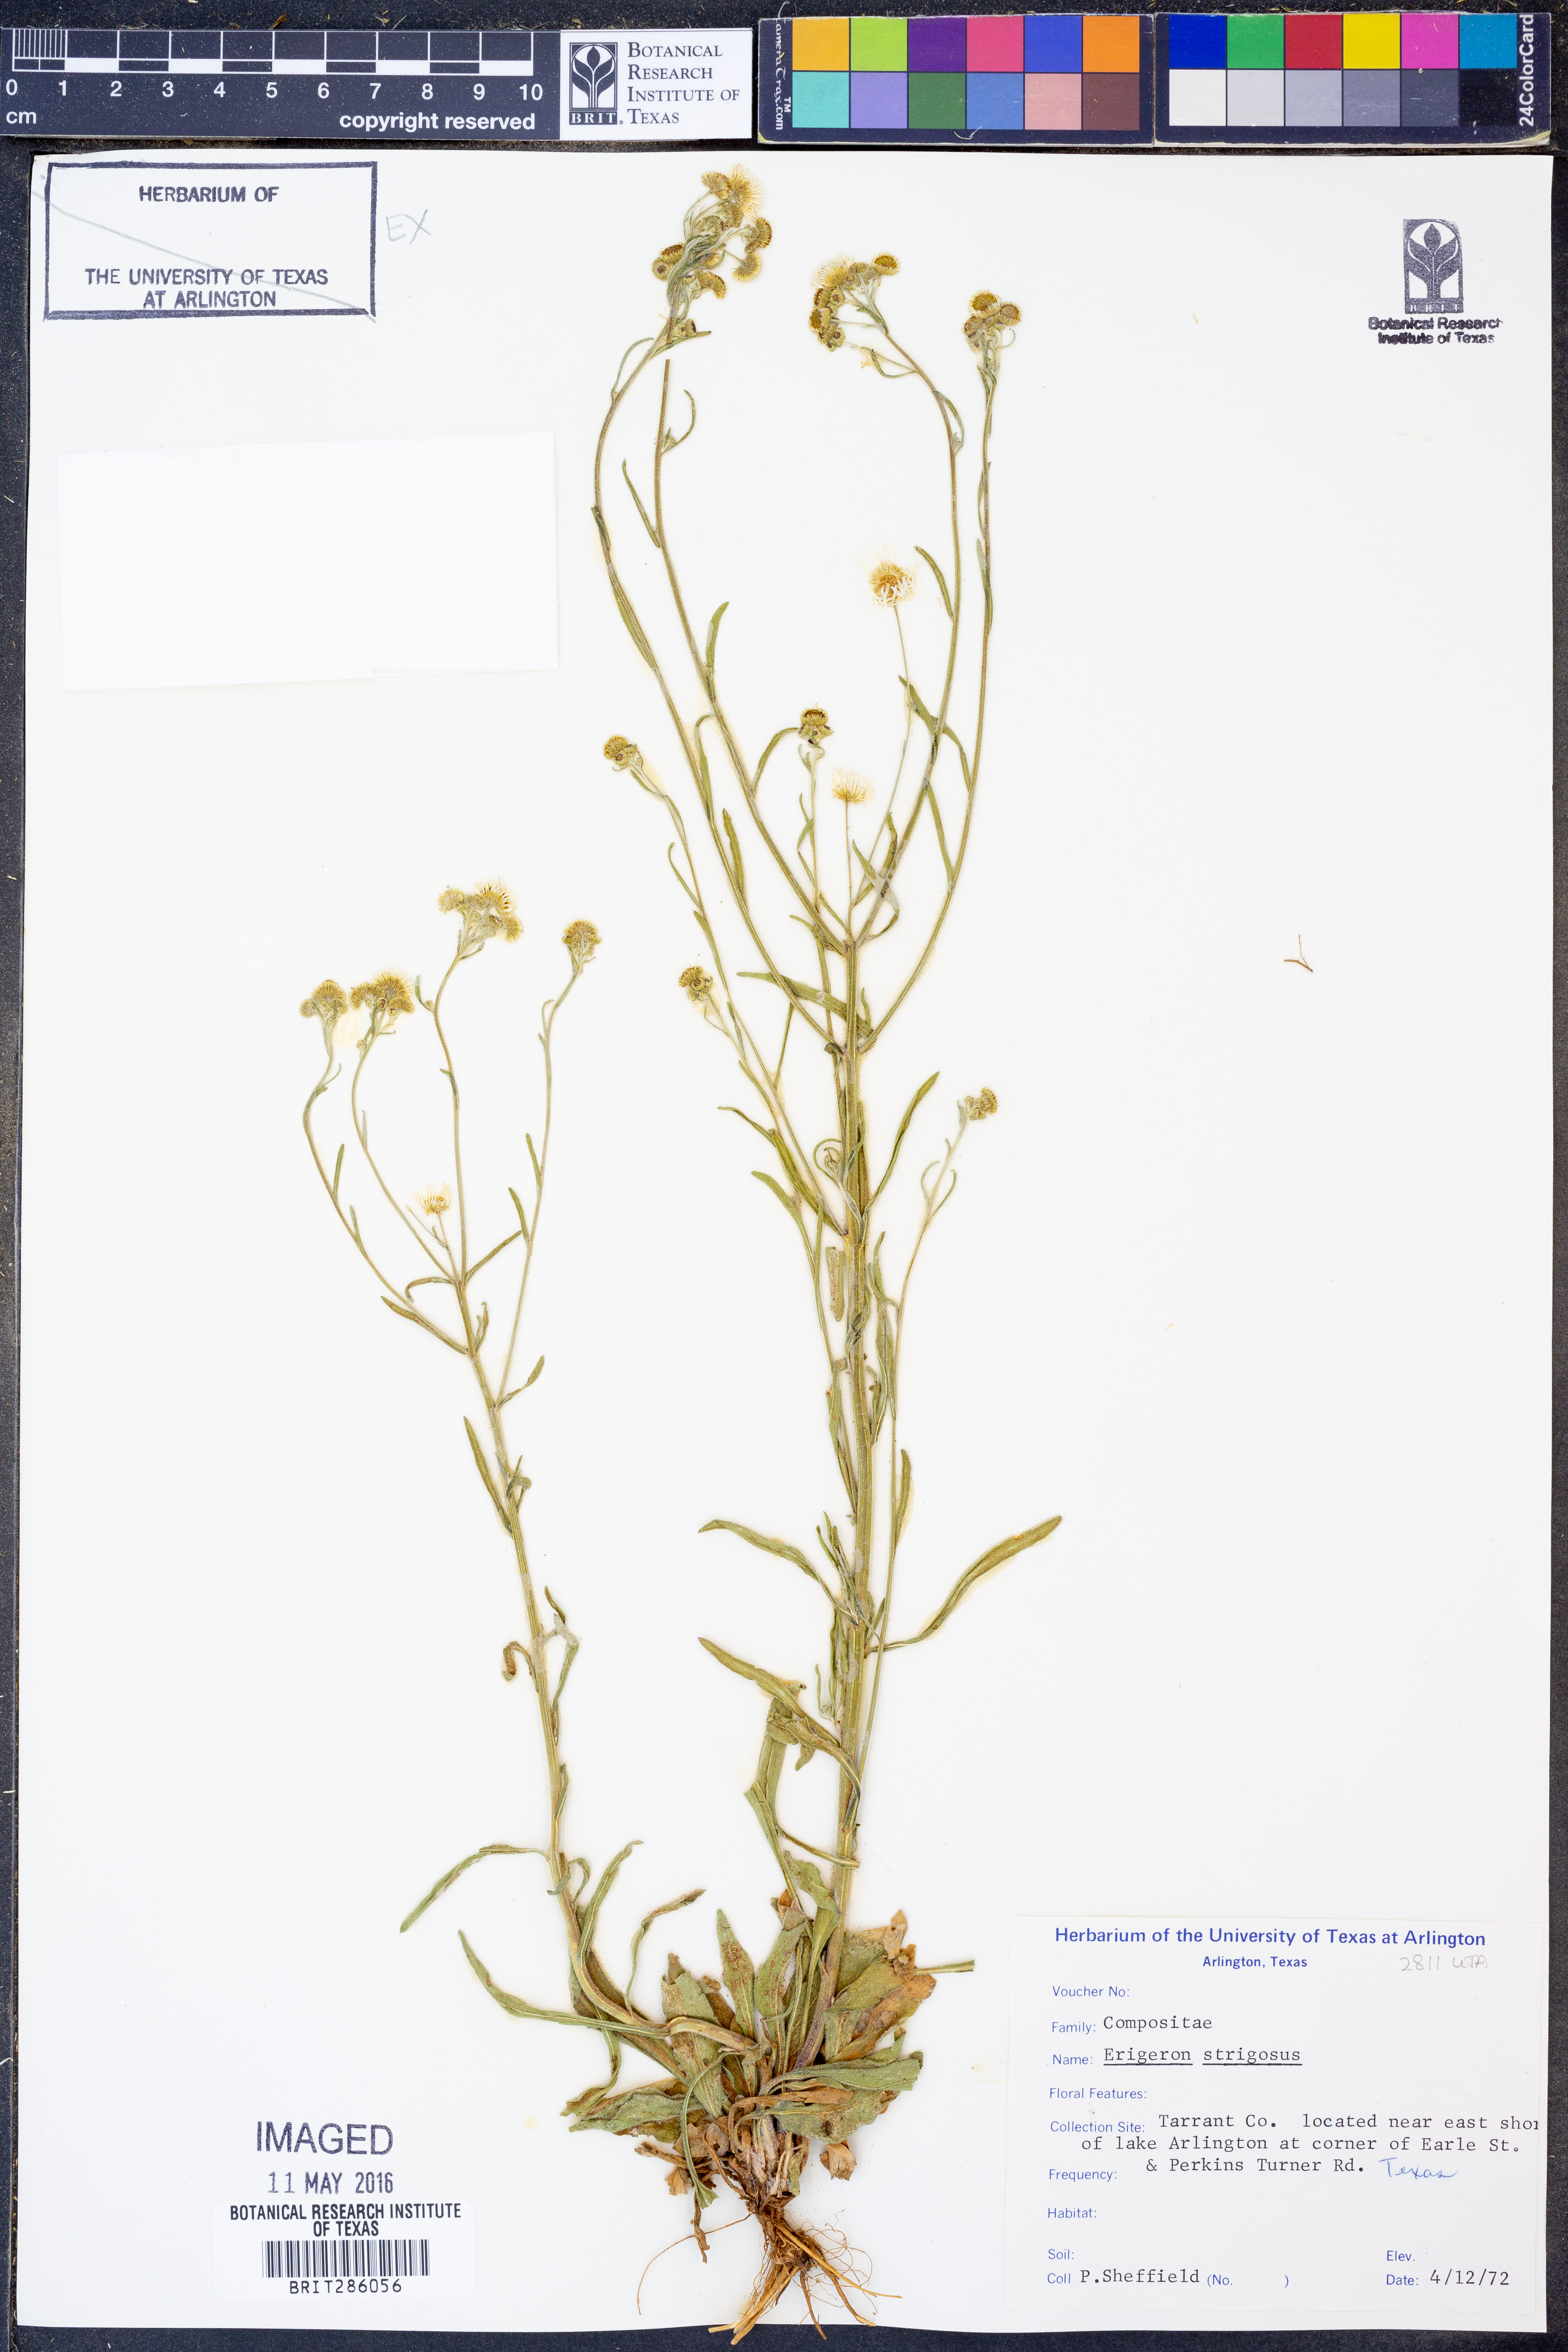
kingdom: Plantae
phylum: Tracheophyta
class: Magnoliopsida
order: Asterales
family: Asteraceae
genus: Erigeron
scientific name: Erigeron strigosus
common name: Common eastern fleabane
